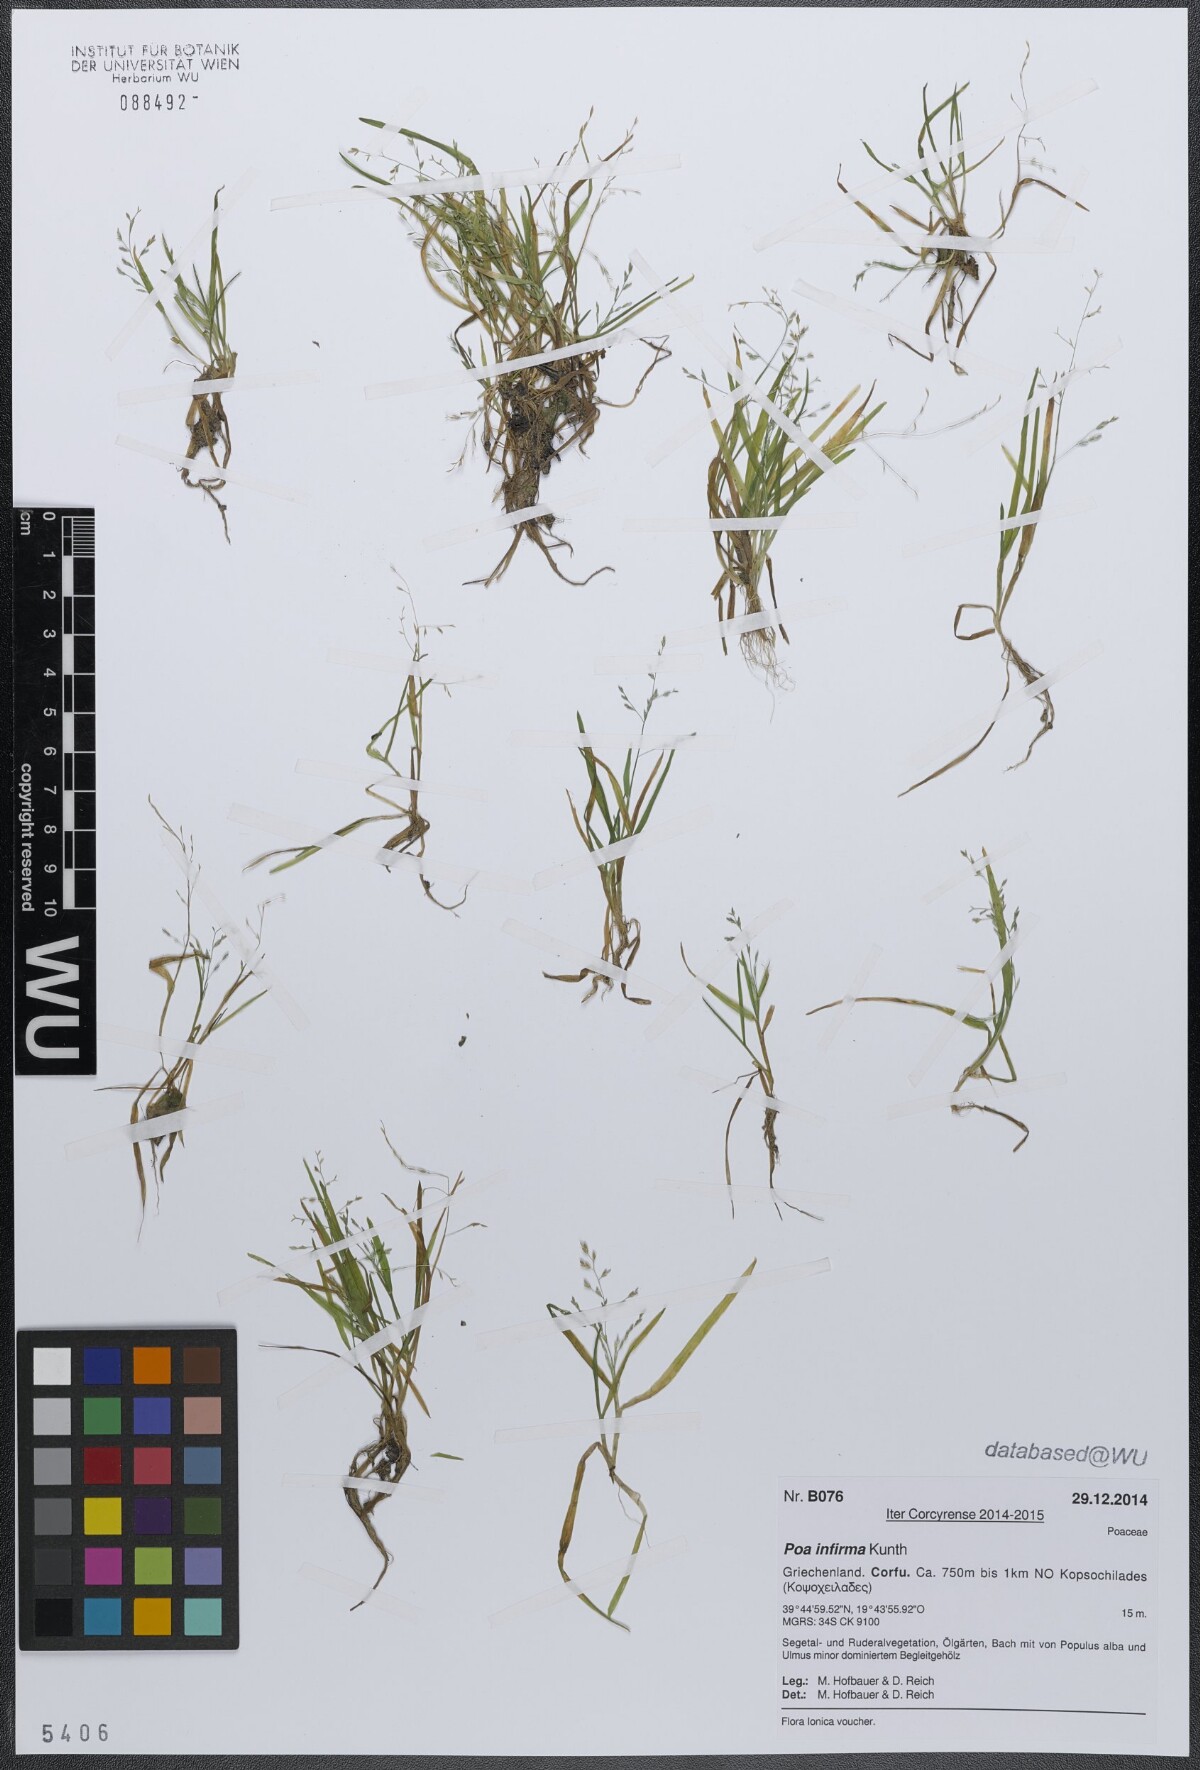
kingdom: Plantae
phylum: Tracheophyta
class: Liliopsida
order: Poales
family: Poaceae
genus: Poa
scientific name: Poa infirma
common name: Weak bluegrass
